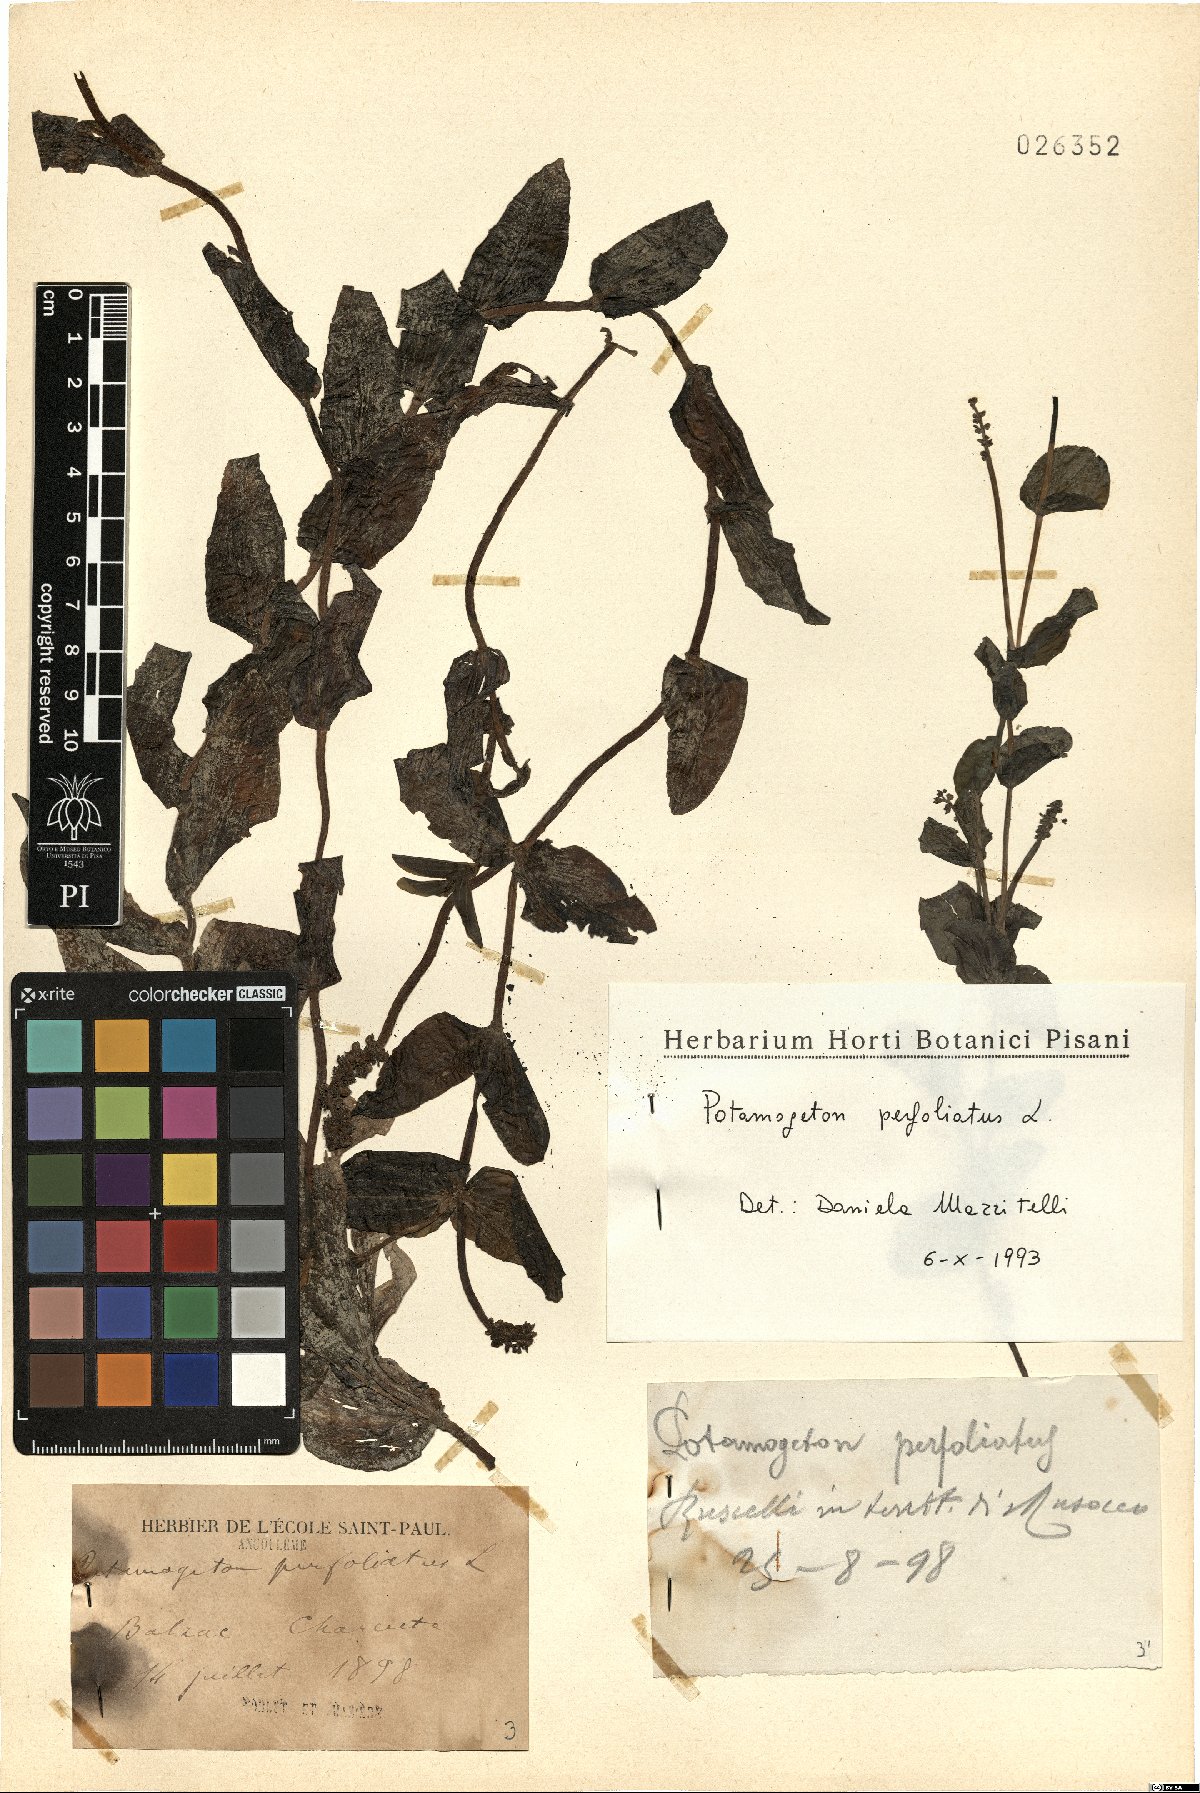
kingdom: Plantae
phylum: Tracheophyta
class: Liliopsida
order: Alismatales
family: Potamogetonaceae
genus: Potamogeton
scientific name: Potamogeton perfoliatus
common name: Perfoliate pondweed
